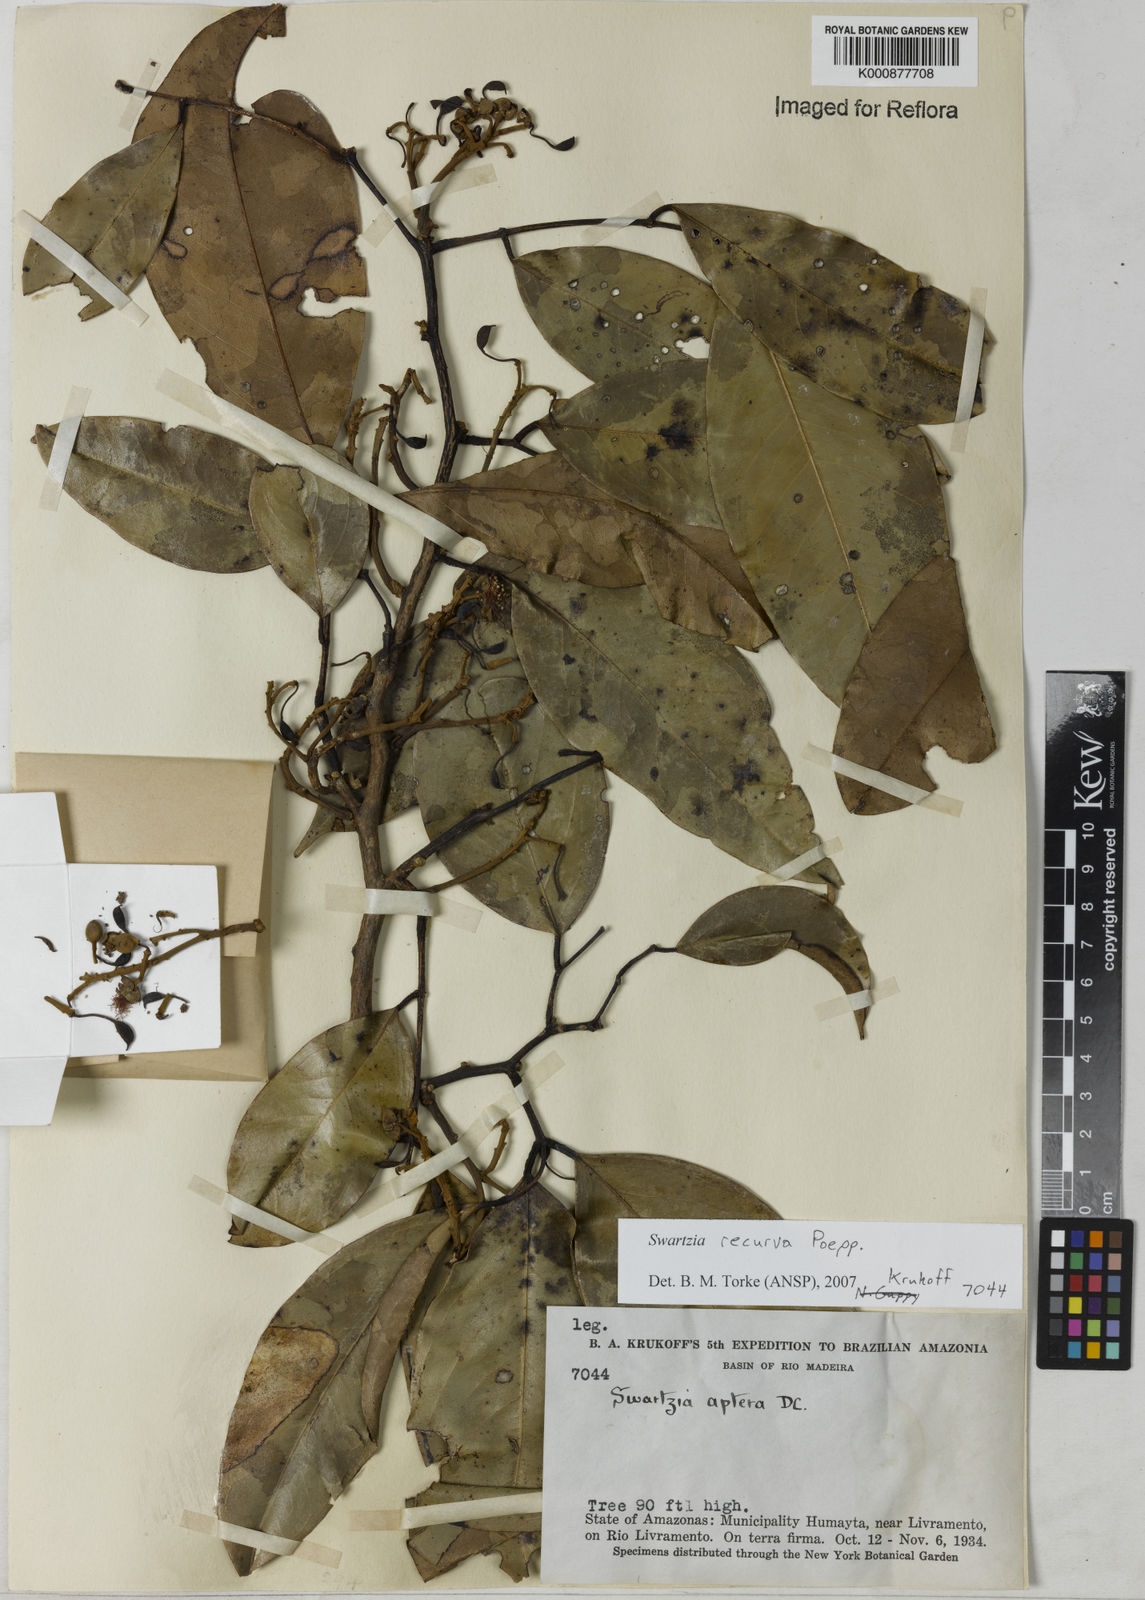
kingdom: Plantae
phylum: Tracheophyta
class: Magnoliopsida
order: Fabales
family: Fabaceae
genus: Swartzia
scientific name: Swartzia recurva
